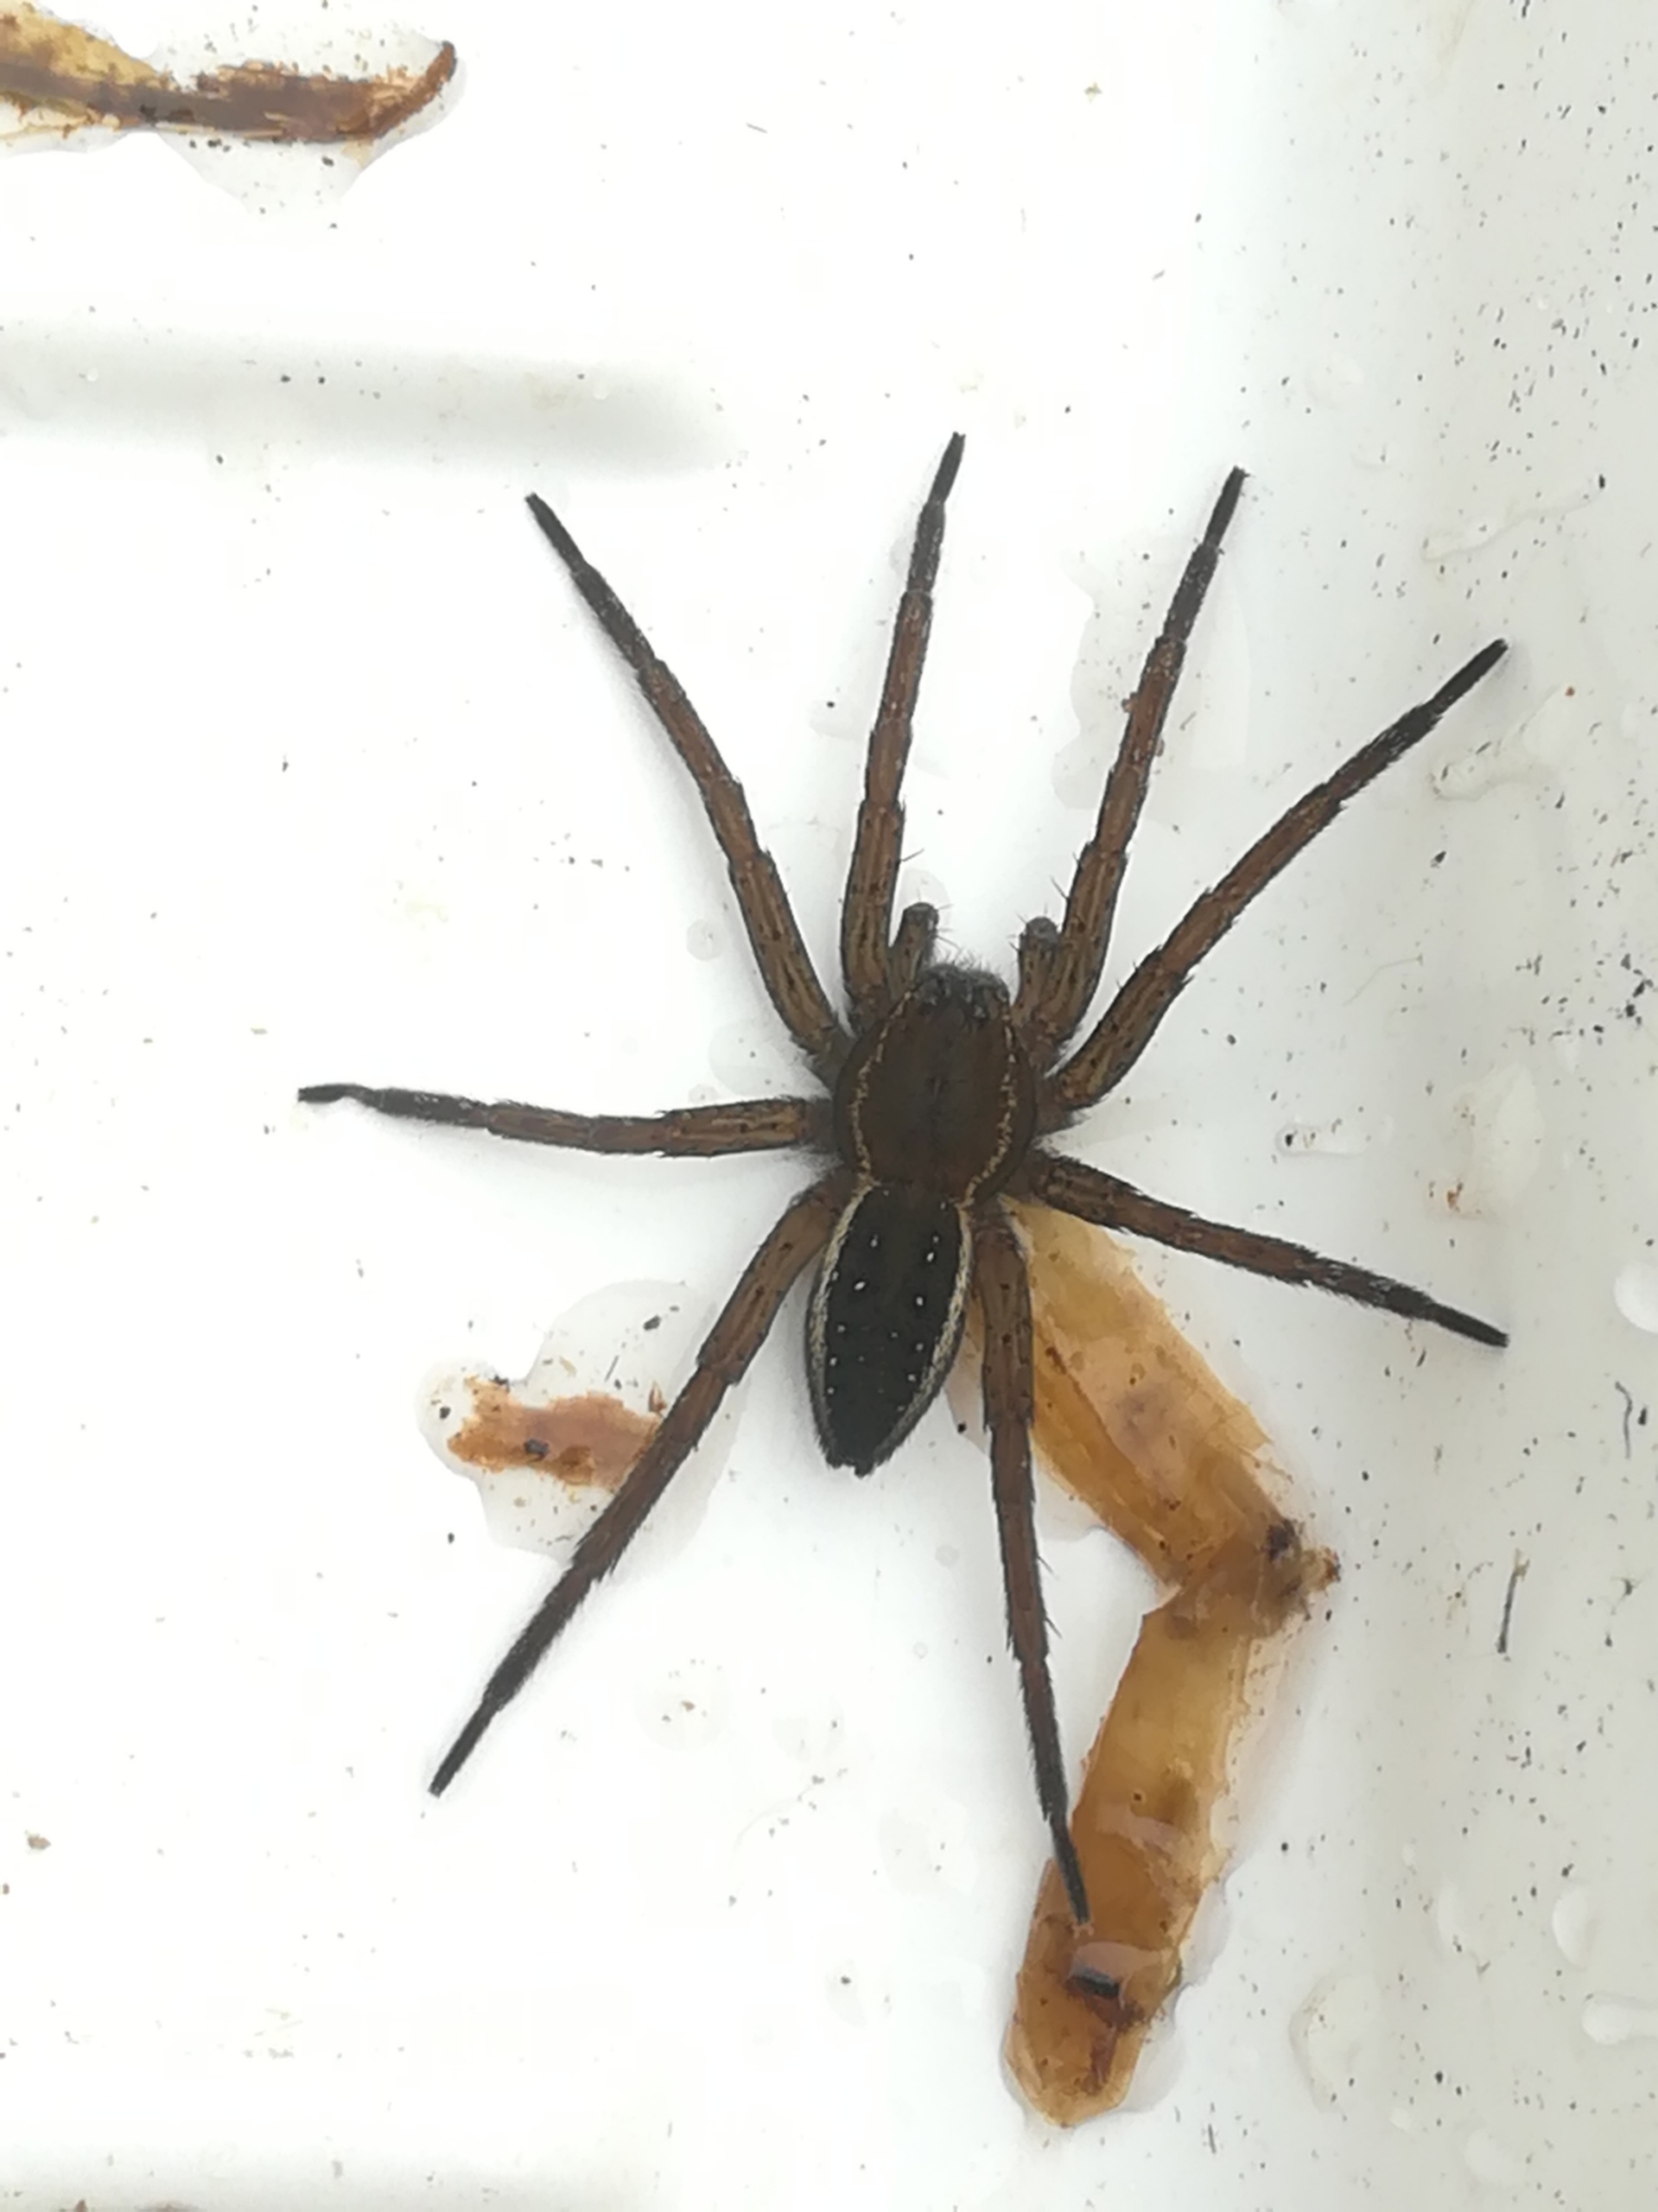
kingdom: Animalia
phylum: Arthropoda
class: Arachnida
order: Araneae
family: Pisauridae
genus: Dolomedes
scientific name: Dolomedes
